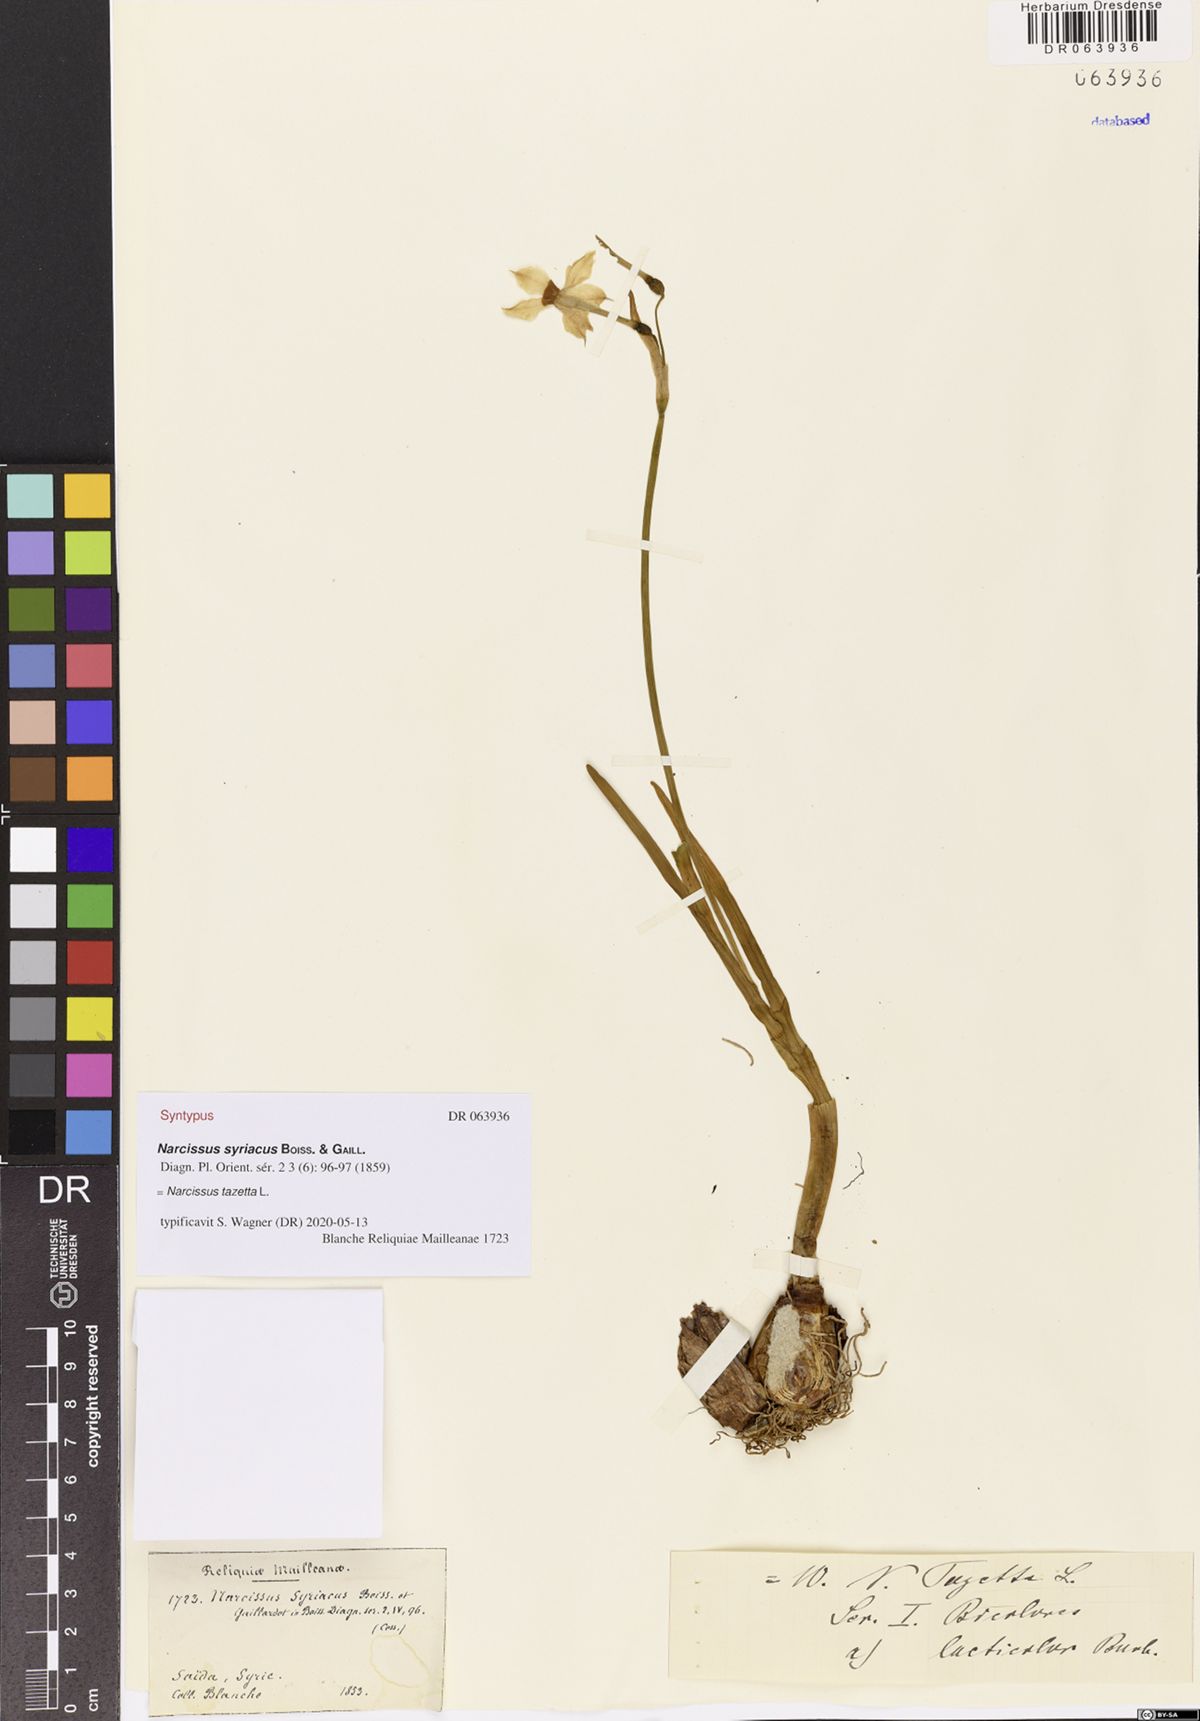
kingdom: Plantae
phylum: Tracheophyta
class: Liliopsida
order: Asparagales
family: Amaryllidaceae
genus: Narcissus
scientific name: Narcissus tazetta
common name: Bunch-flowered daffodil
